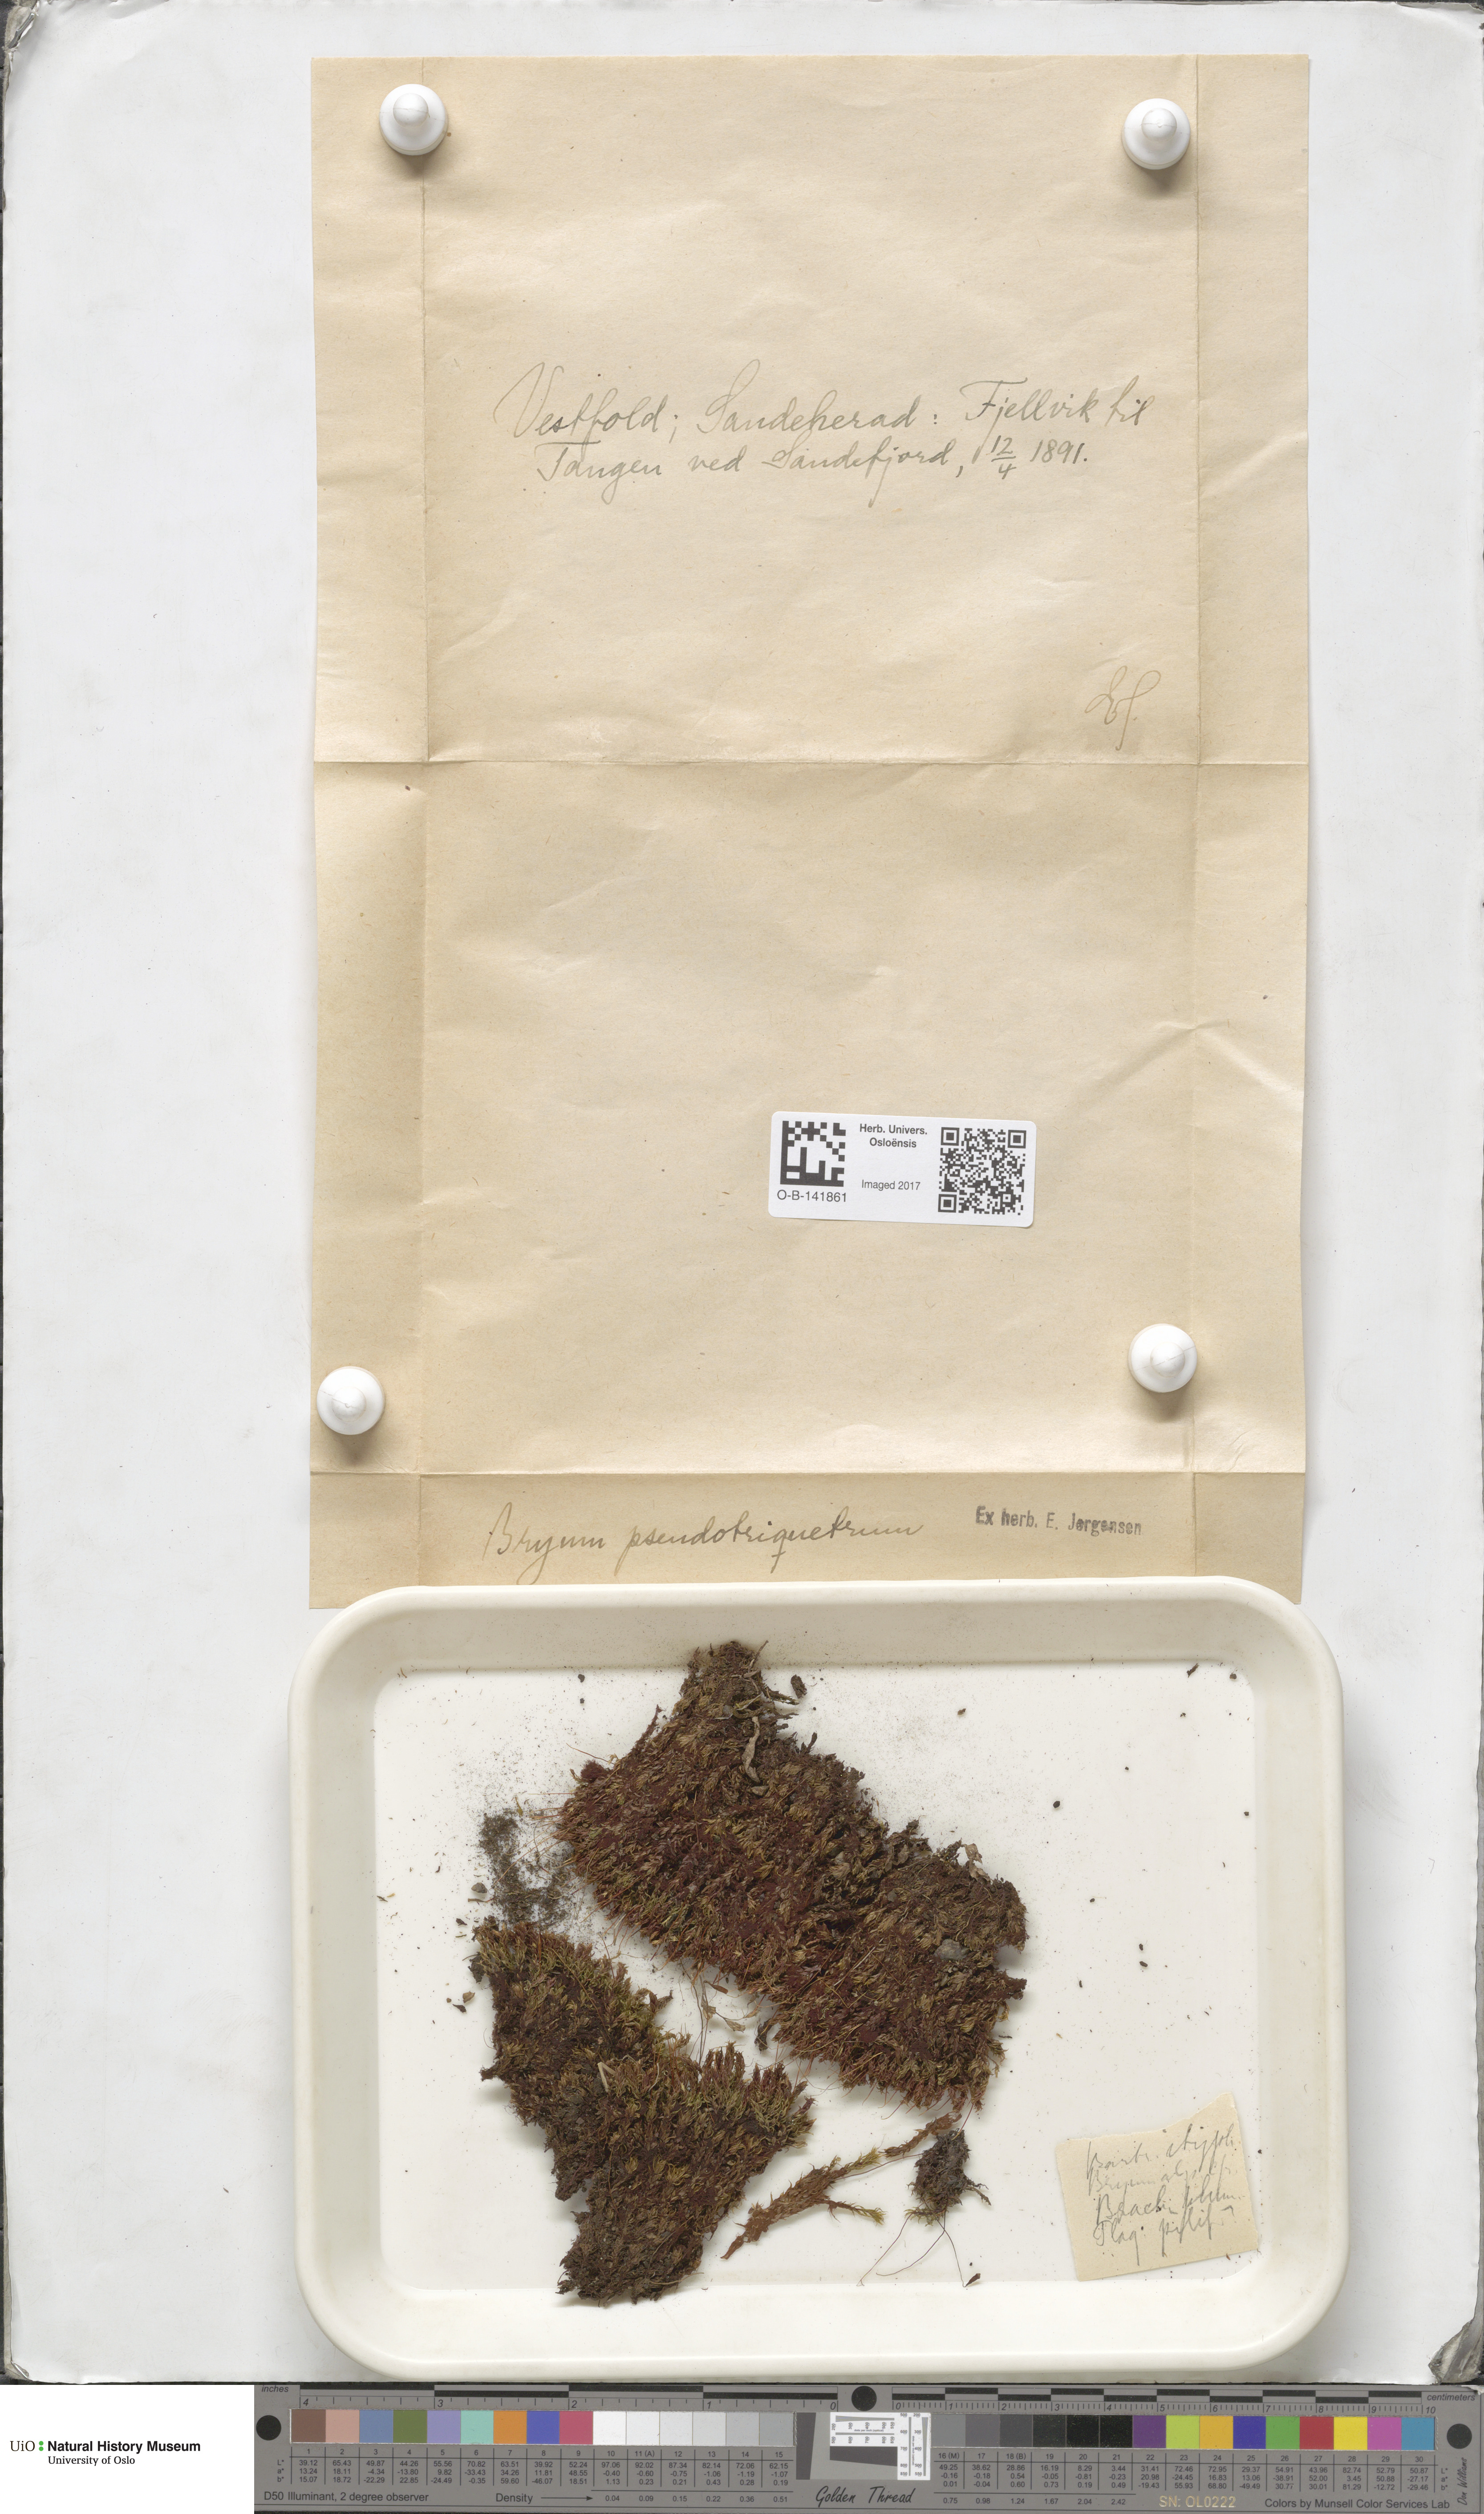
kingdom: Plantae
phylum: Bryophyta
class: Bryopsida
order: Bryales
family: Bryaceae
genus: Ptychostomum
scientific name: Ptychostomum pseudotriquetrum
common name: Long-leaved thread moss
